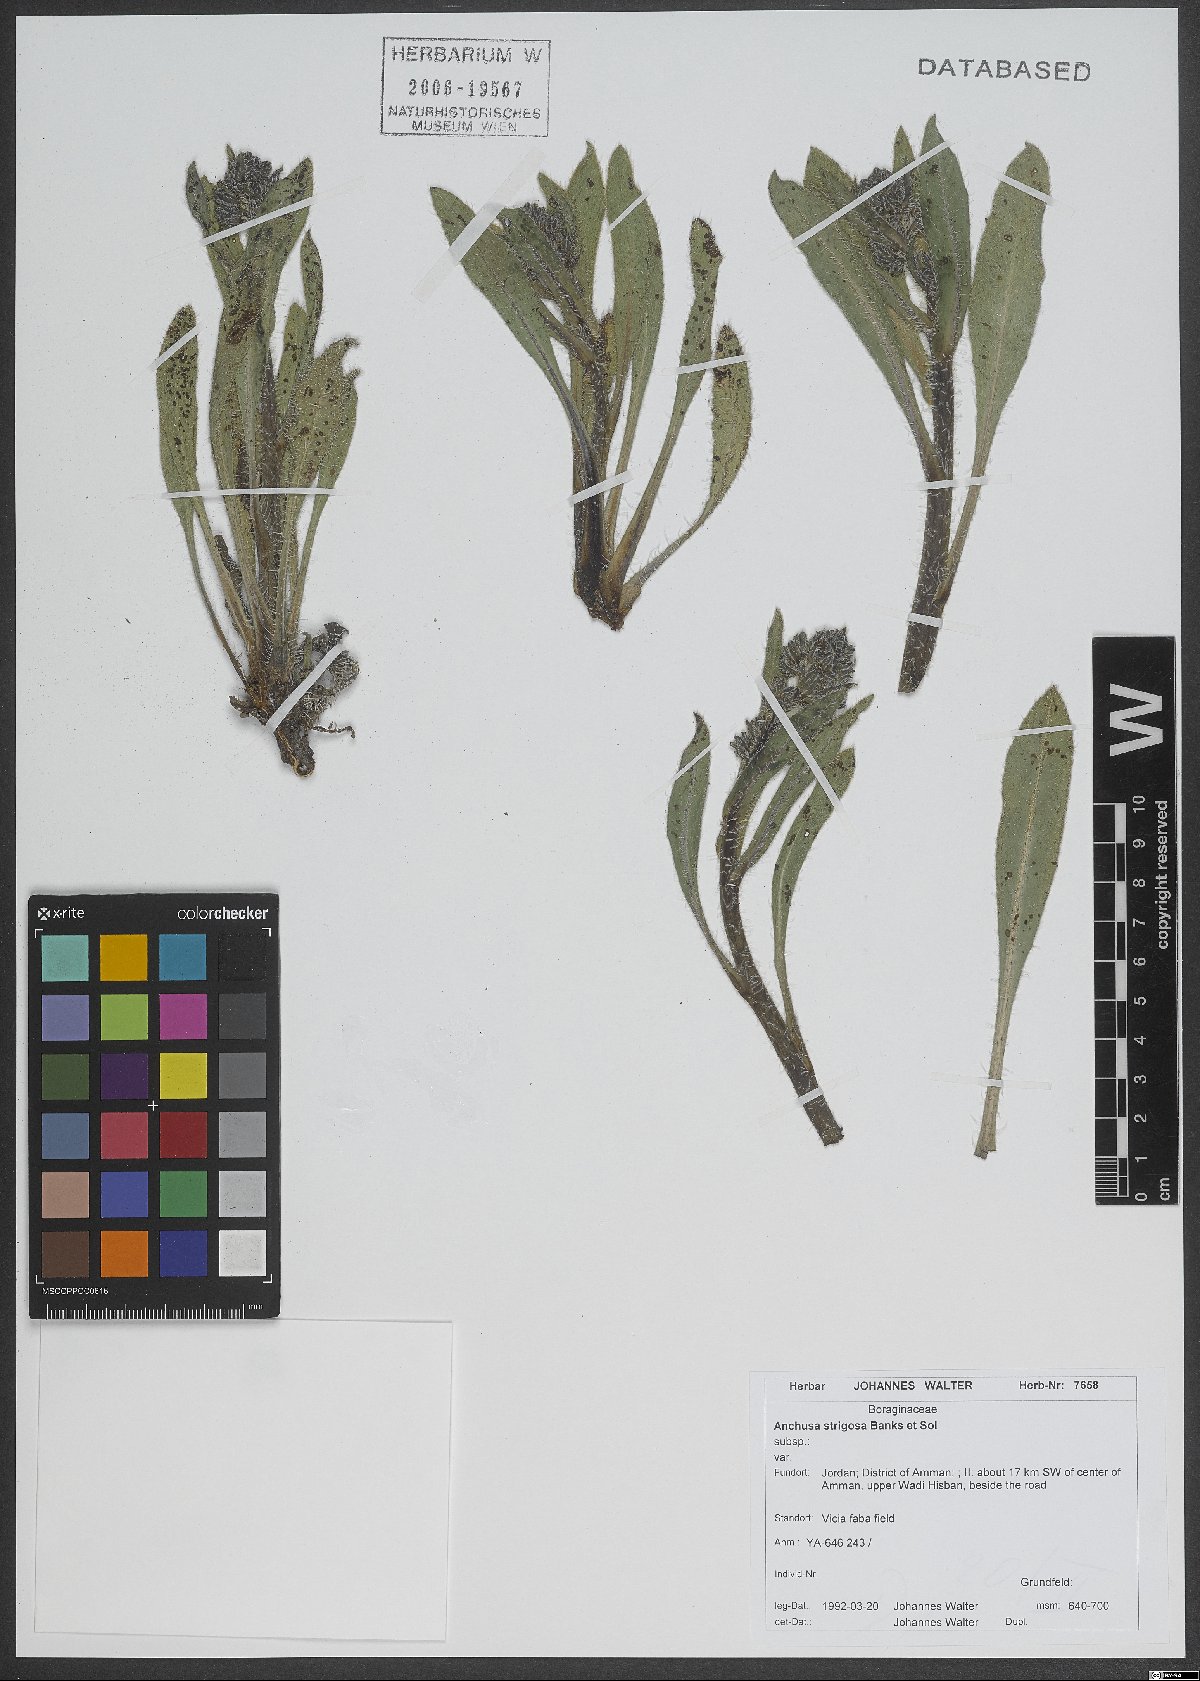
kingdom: Plantae
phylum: Tracheophyta
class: Magnoliopsida
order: Boraginales
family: Boraginaceae
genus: Anchusa
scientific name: Anchusa strigosa
